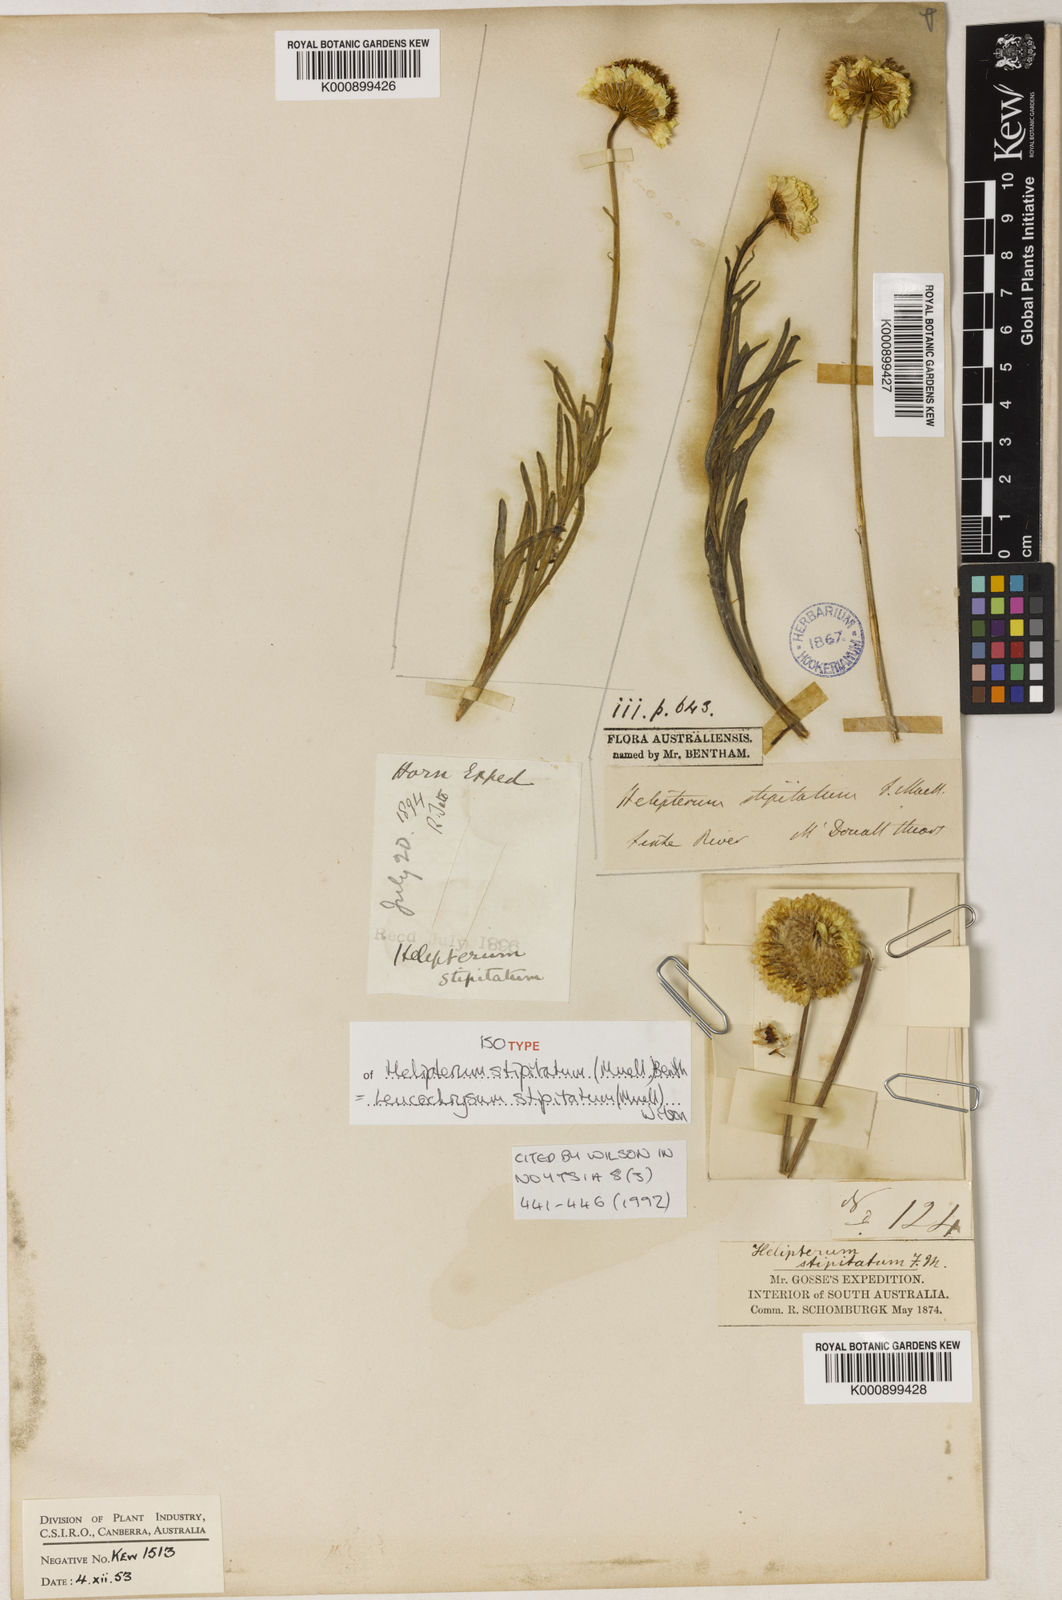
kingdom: Plantae
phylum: Tracheophyta
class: Magnoliopsida
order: Asterales
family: Asteraceae
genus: Leucochrysum
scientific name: Leucochrysum stipitatum
